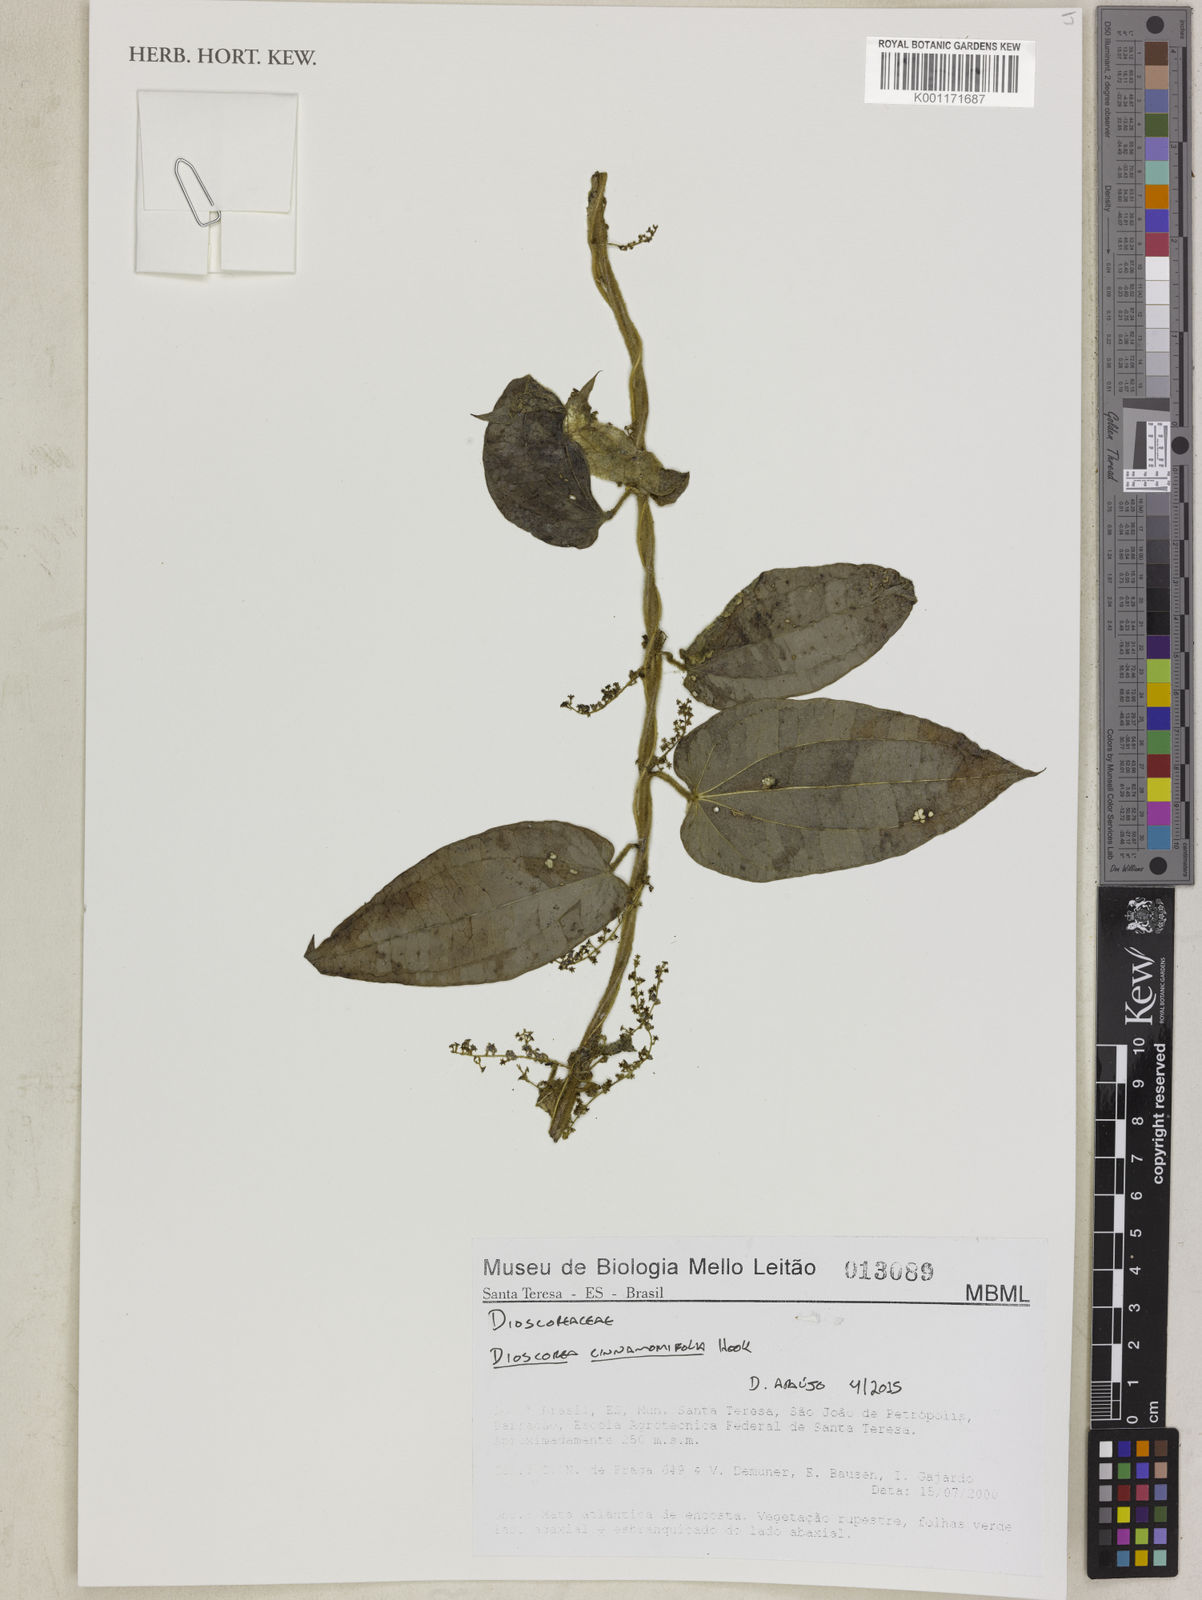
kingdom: Plantae
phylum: Tracheophyta
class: Liliopsida
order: Dioscoreales
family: Dioscoreaceae
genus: Dioscorea
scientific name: Dioscorea cinnamomifolia
